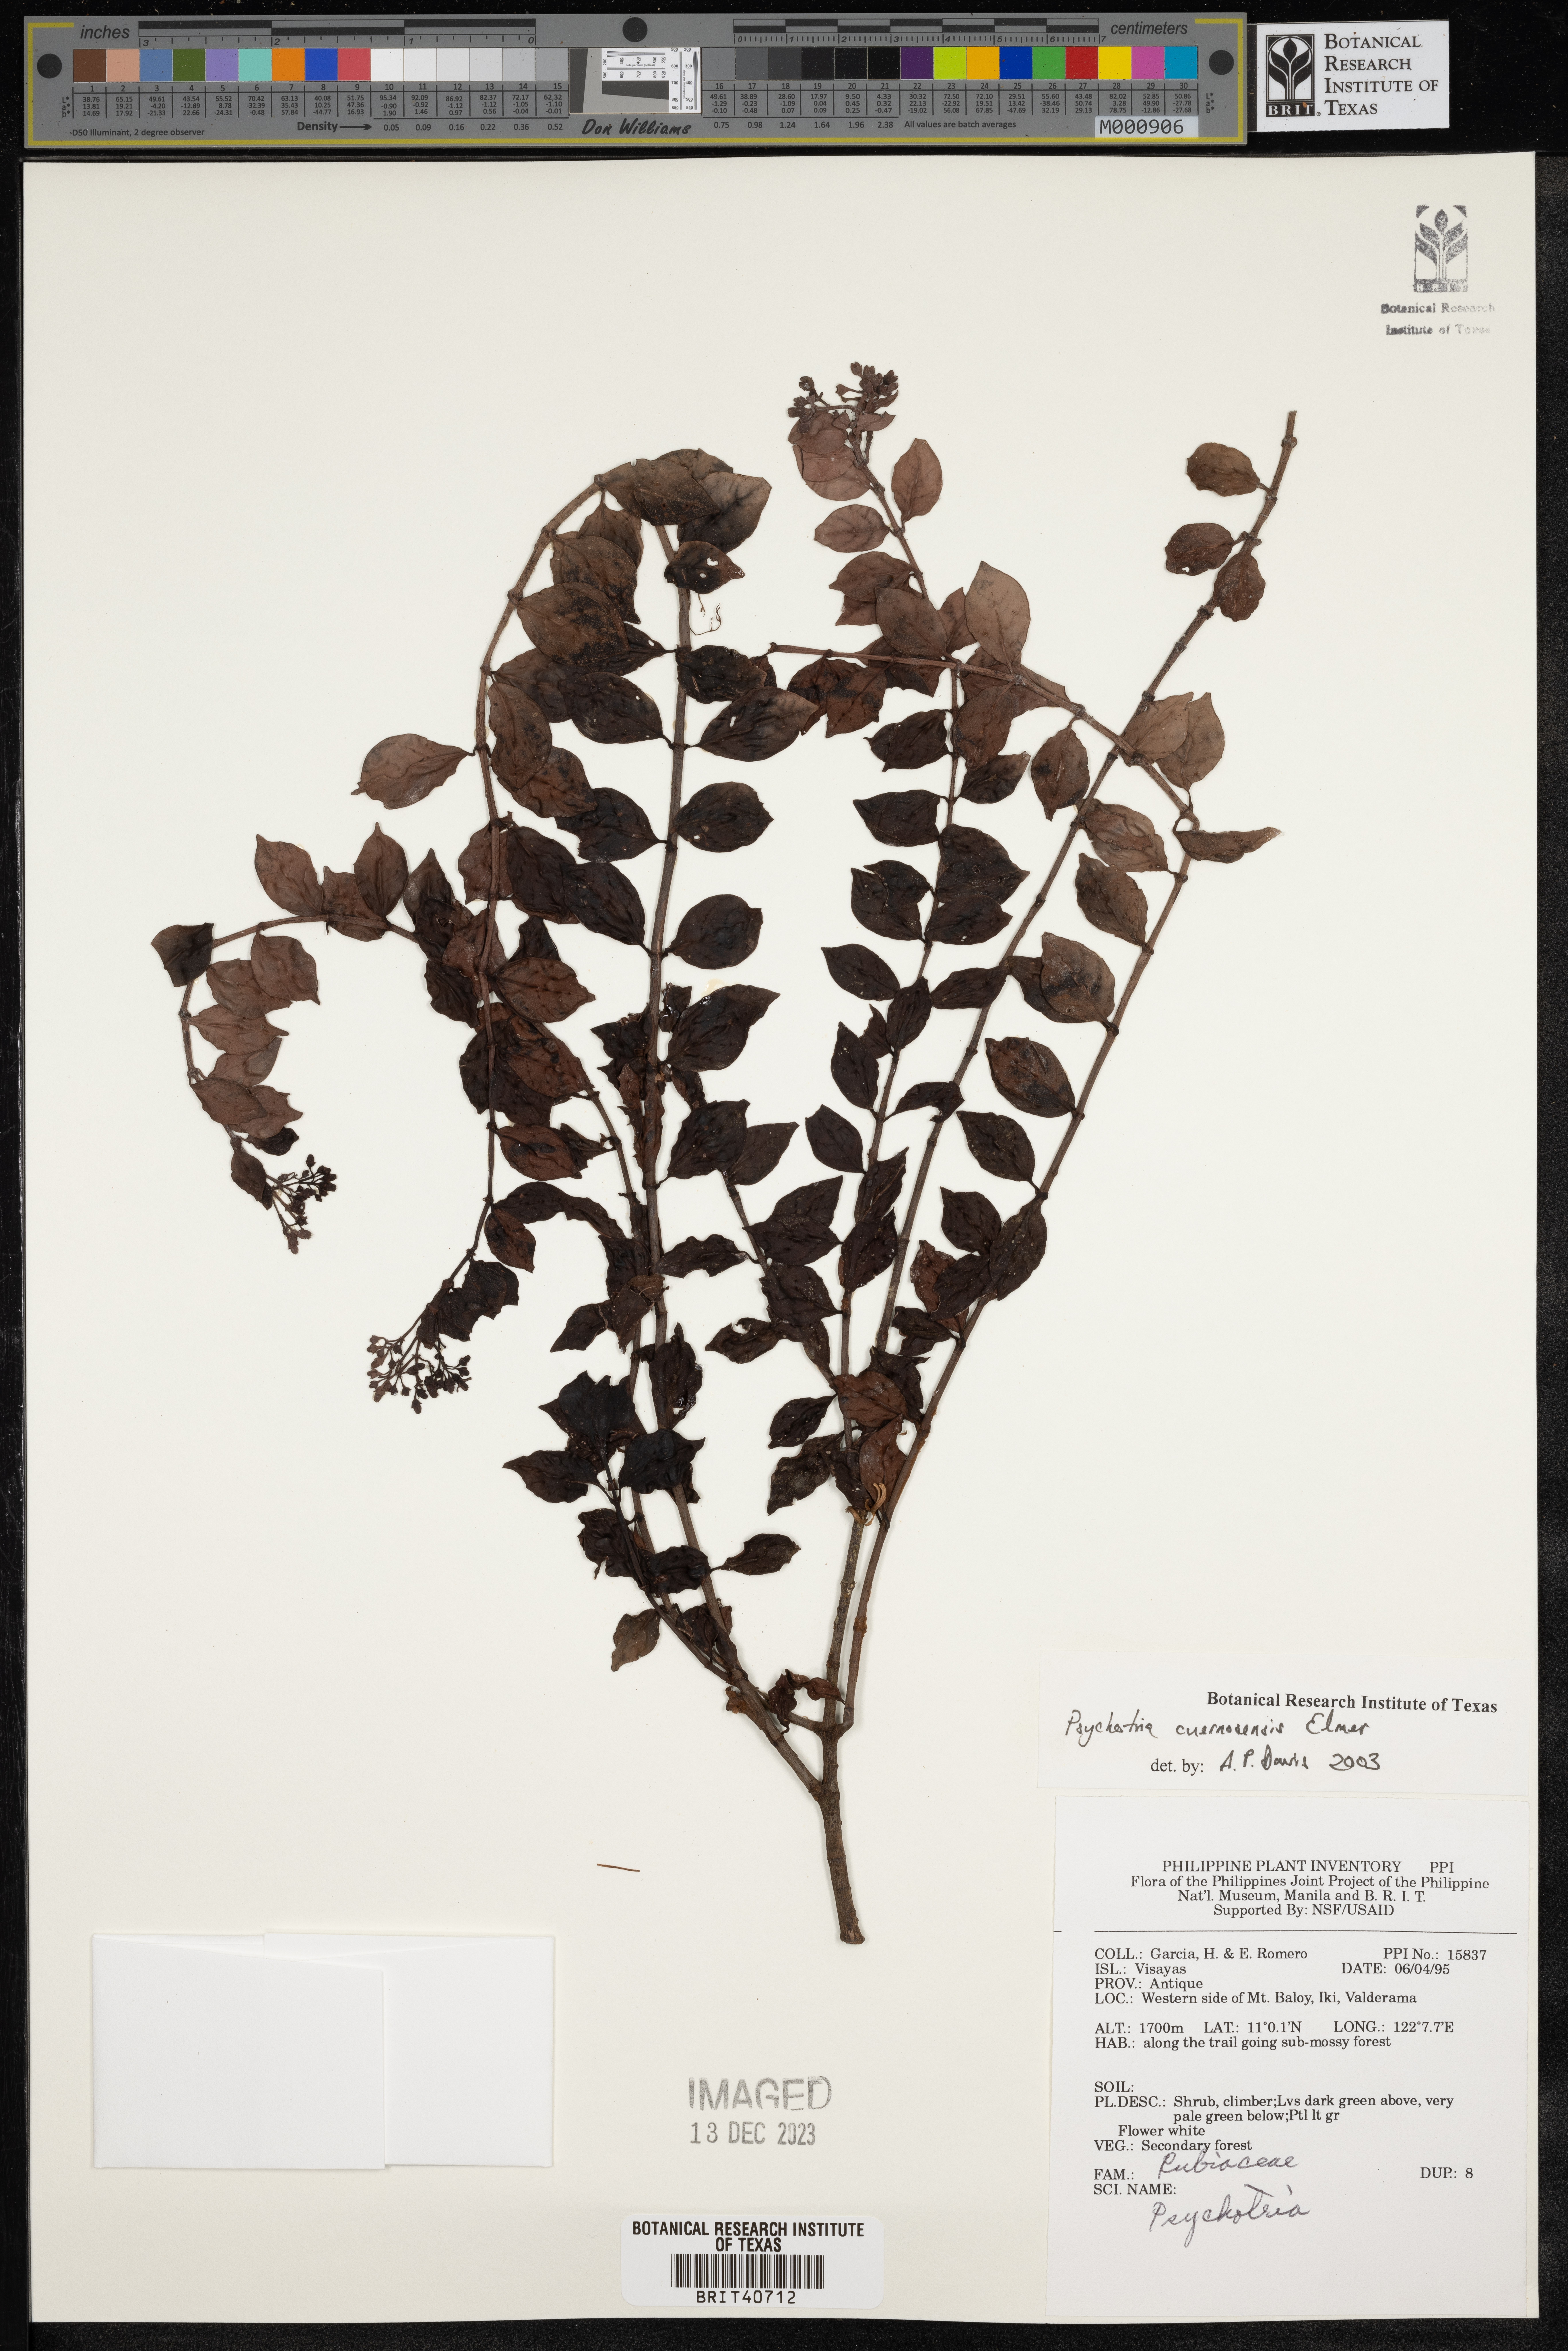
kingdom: Plantae
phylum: Tracheophyta
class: Magnoliopsida
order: Gentianales
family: Rubiaceae
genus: Psychotria
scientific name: Psychotria cuernosensis
